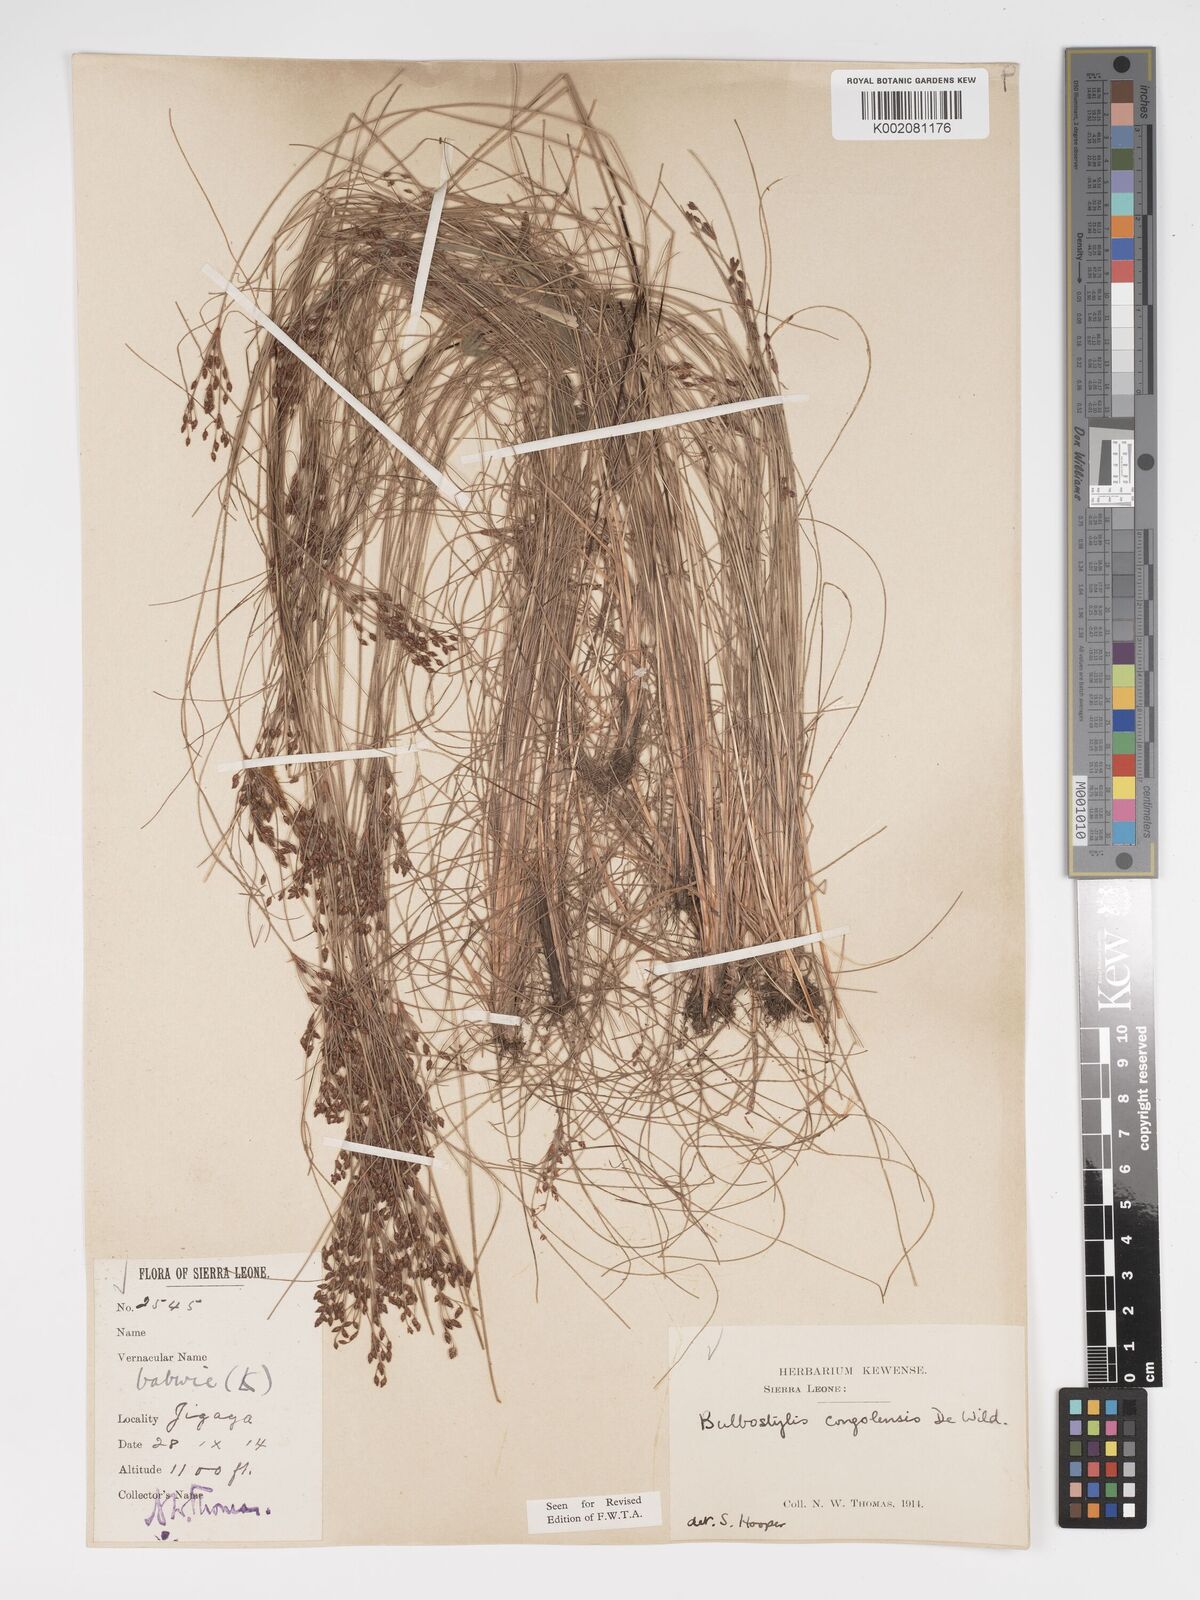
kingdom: Plantae
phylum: Tracheophyta
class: Liliopsida
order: Poales
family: Cyperaceae
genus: Bulbostylis
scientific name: Bulbostylis congolensis
